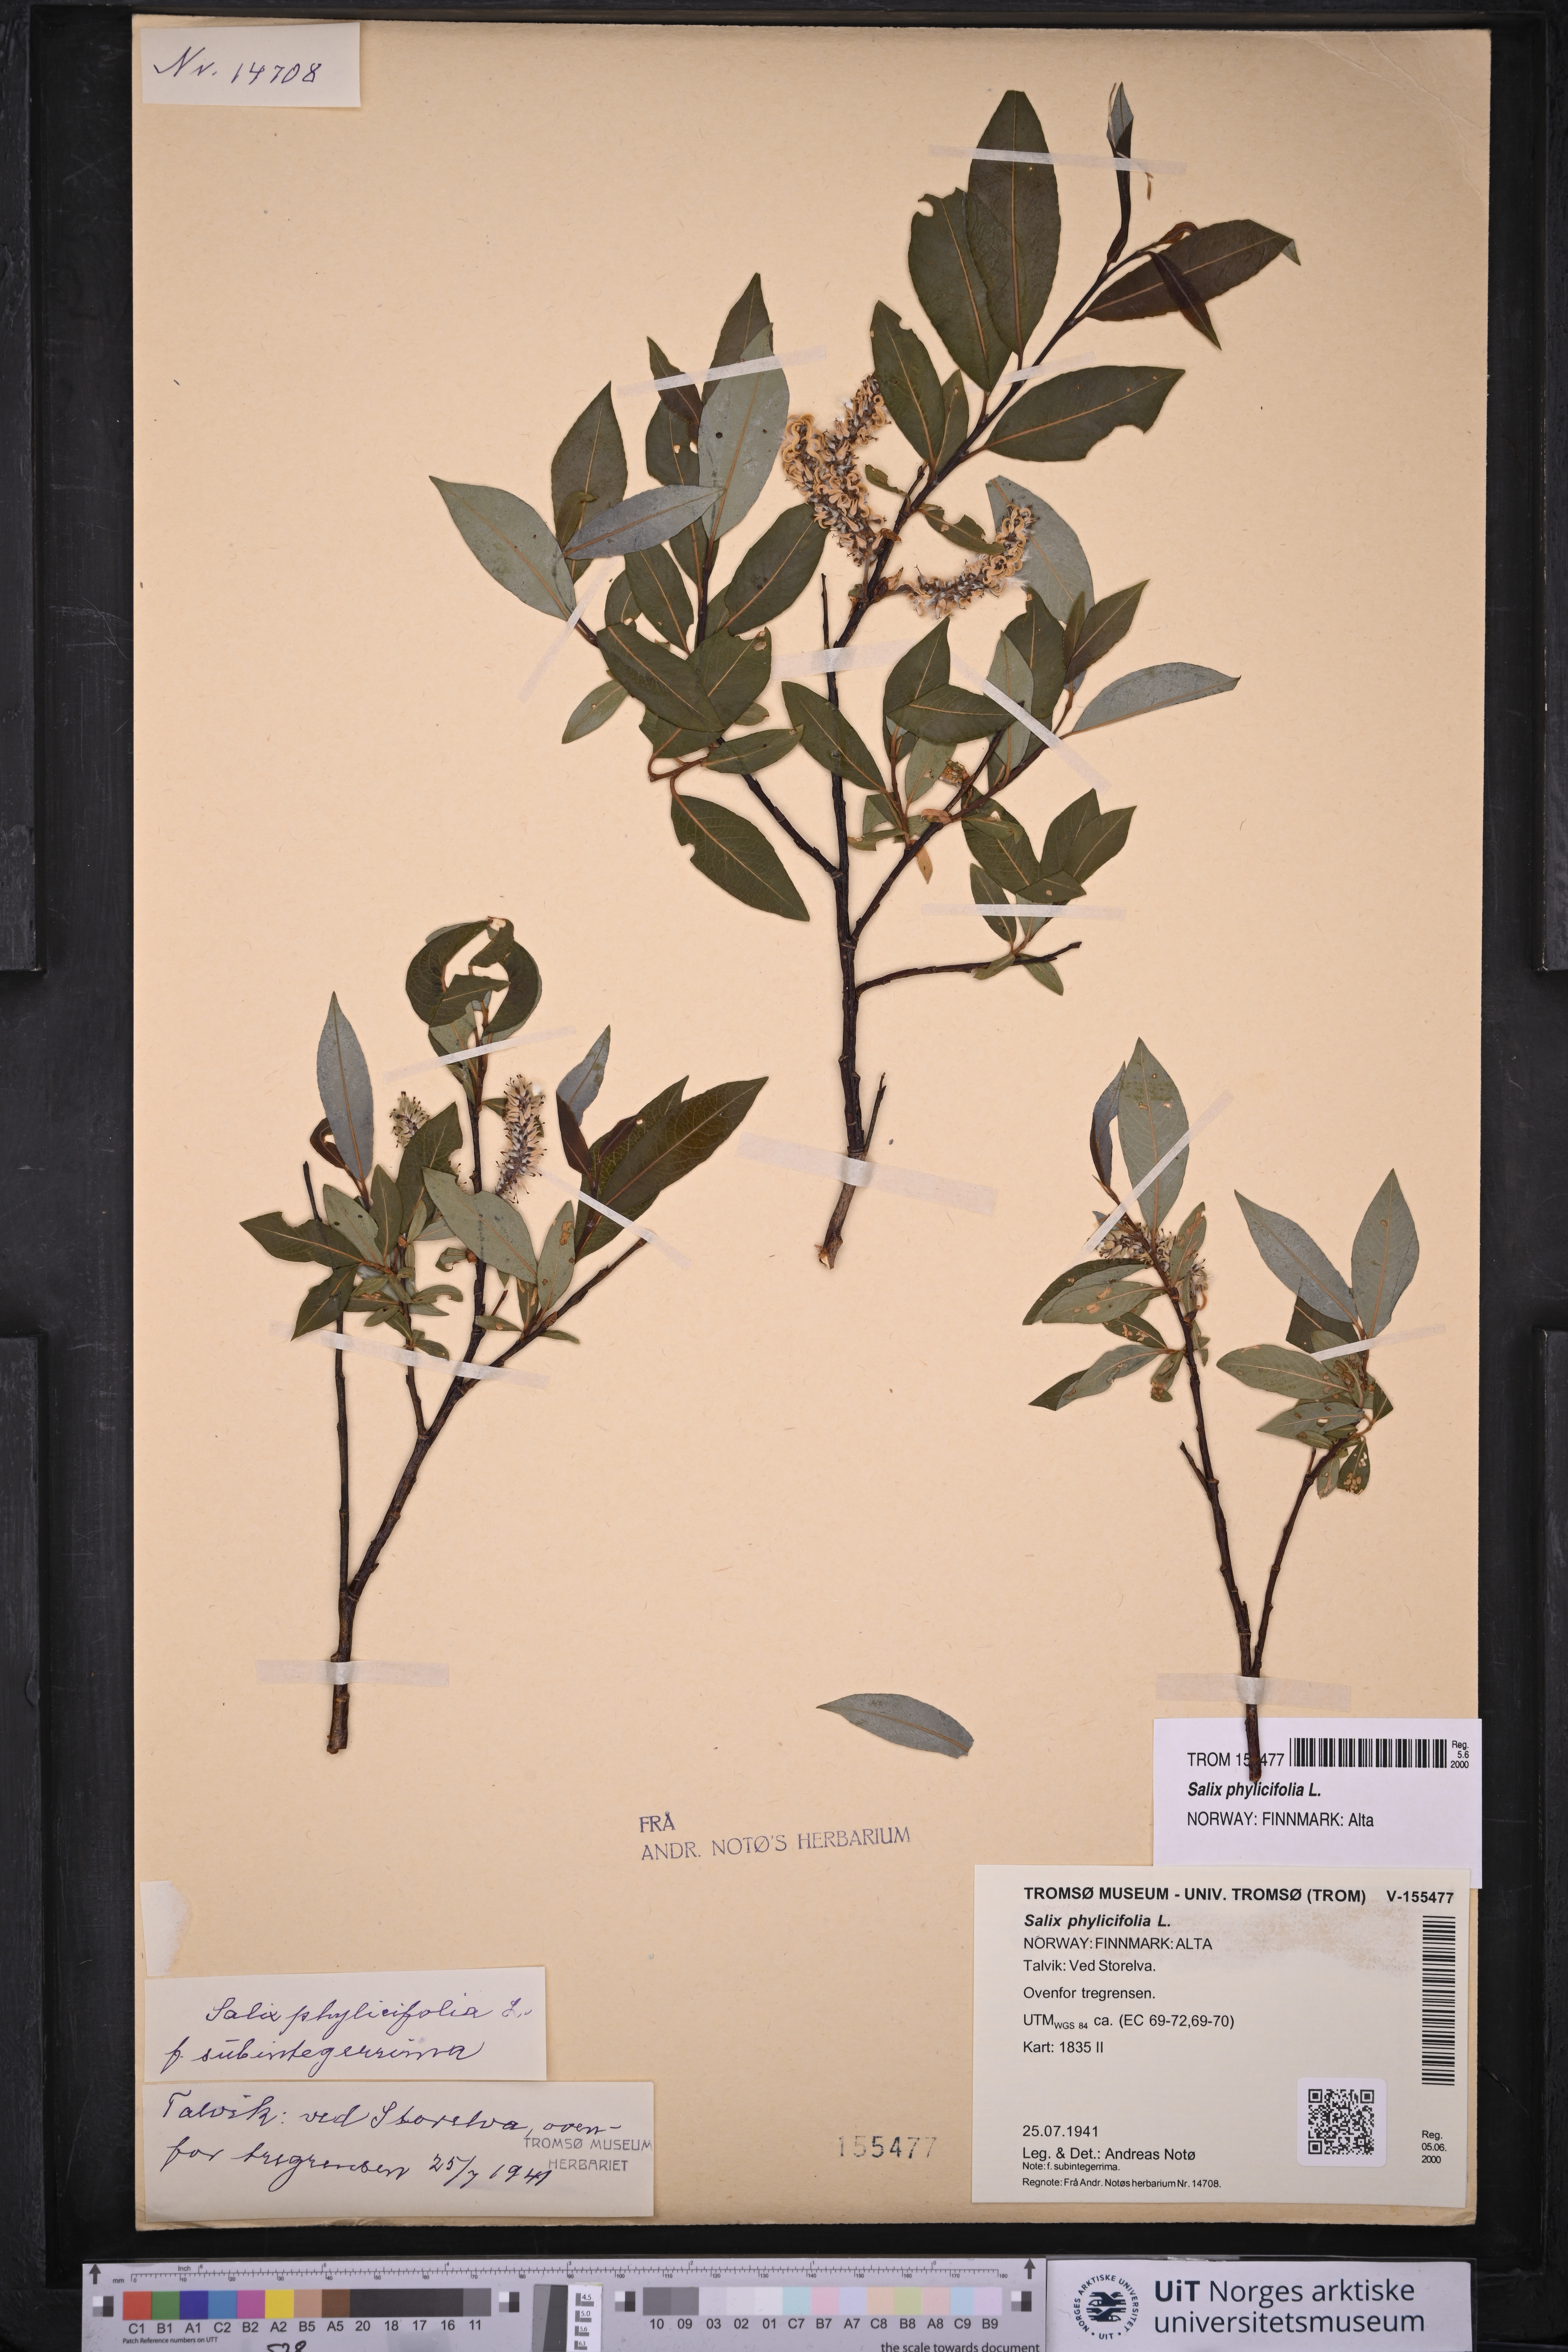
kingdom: Plantae
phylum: Tracheophyta
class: Magnoliopsida
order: Malpighiales
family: Salicaceae
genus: Salix
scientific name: Salix phylicifolia
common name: Tea-leaved willow
